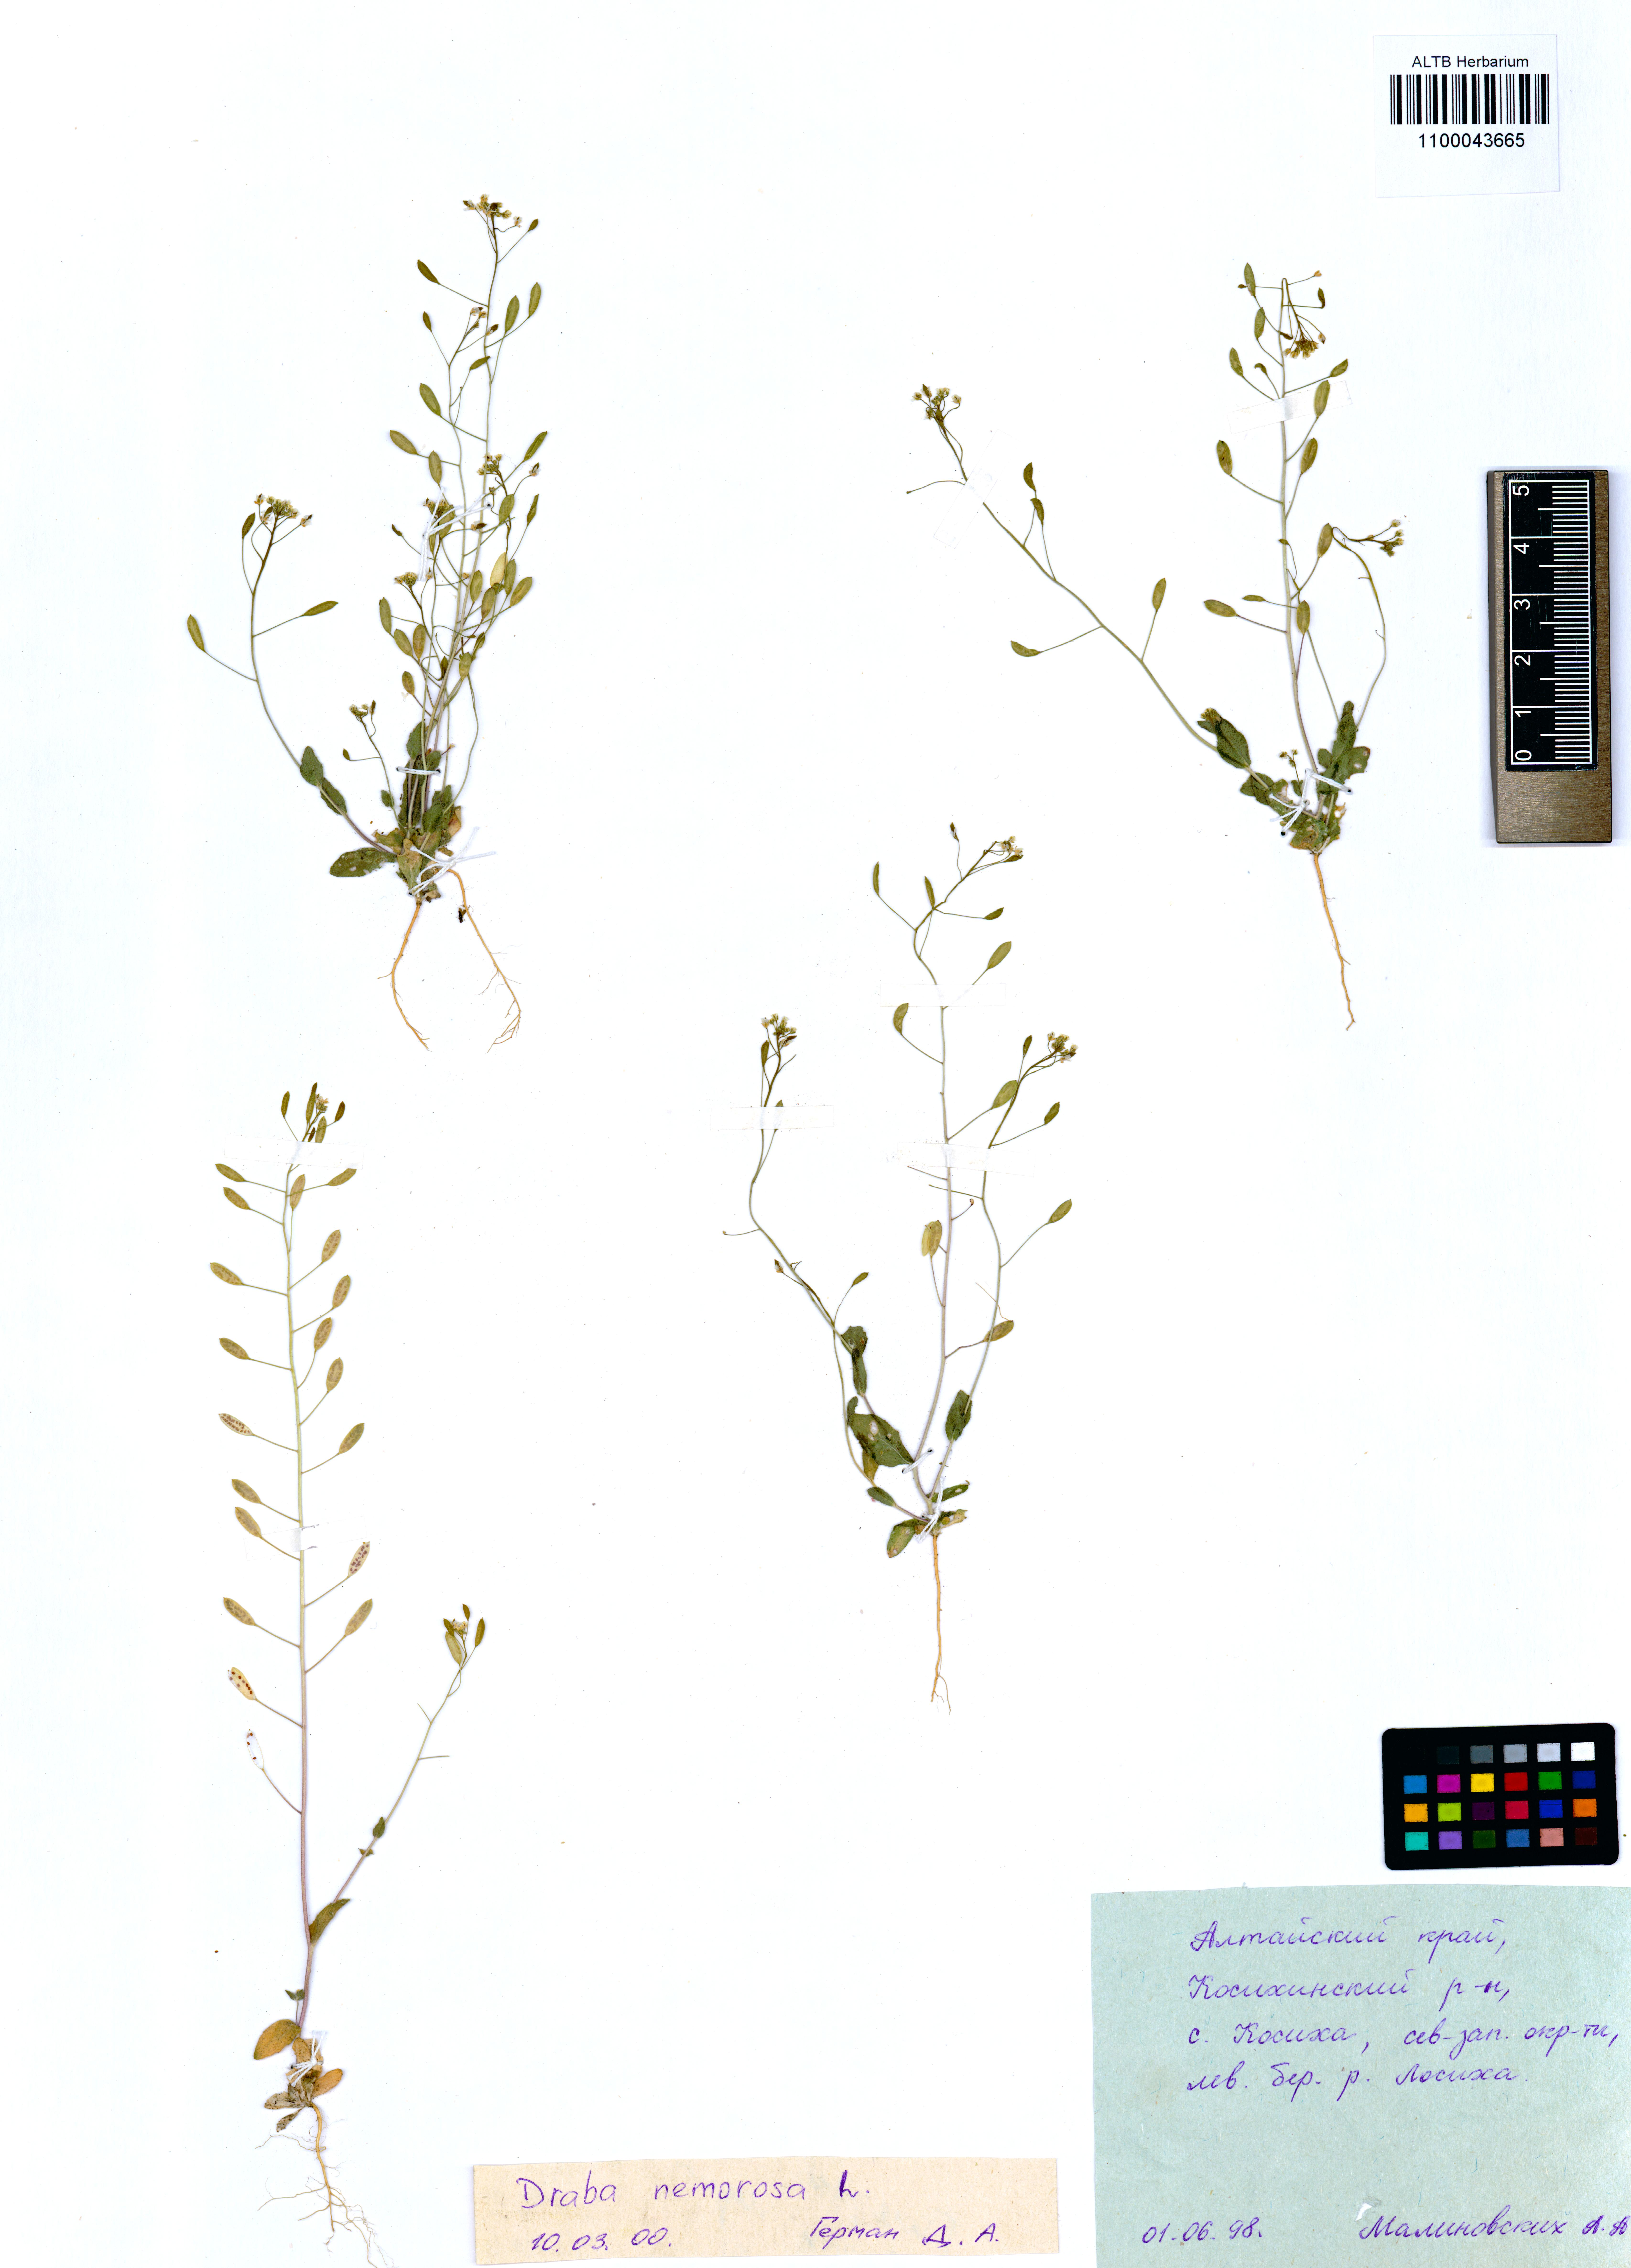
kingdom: Plantae
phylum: Tracheophyta
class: Magnoliopsida
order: Brassicales
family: Brassicaceae
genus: Draba
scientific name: Draba nemorosa
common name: Wood whitlow-grass
